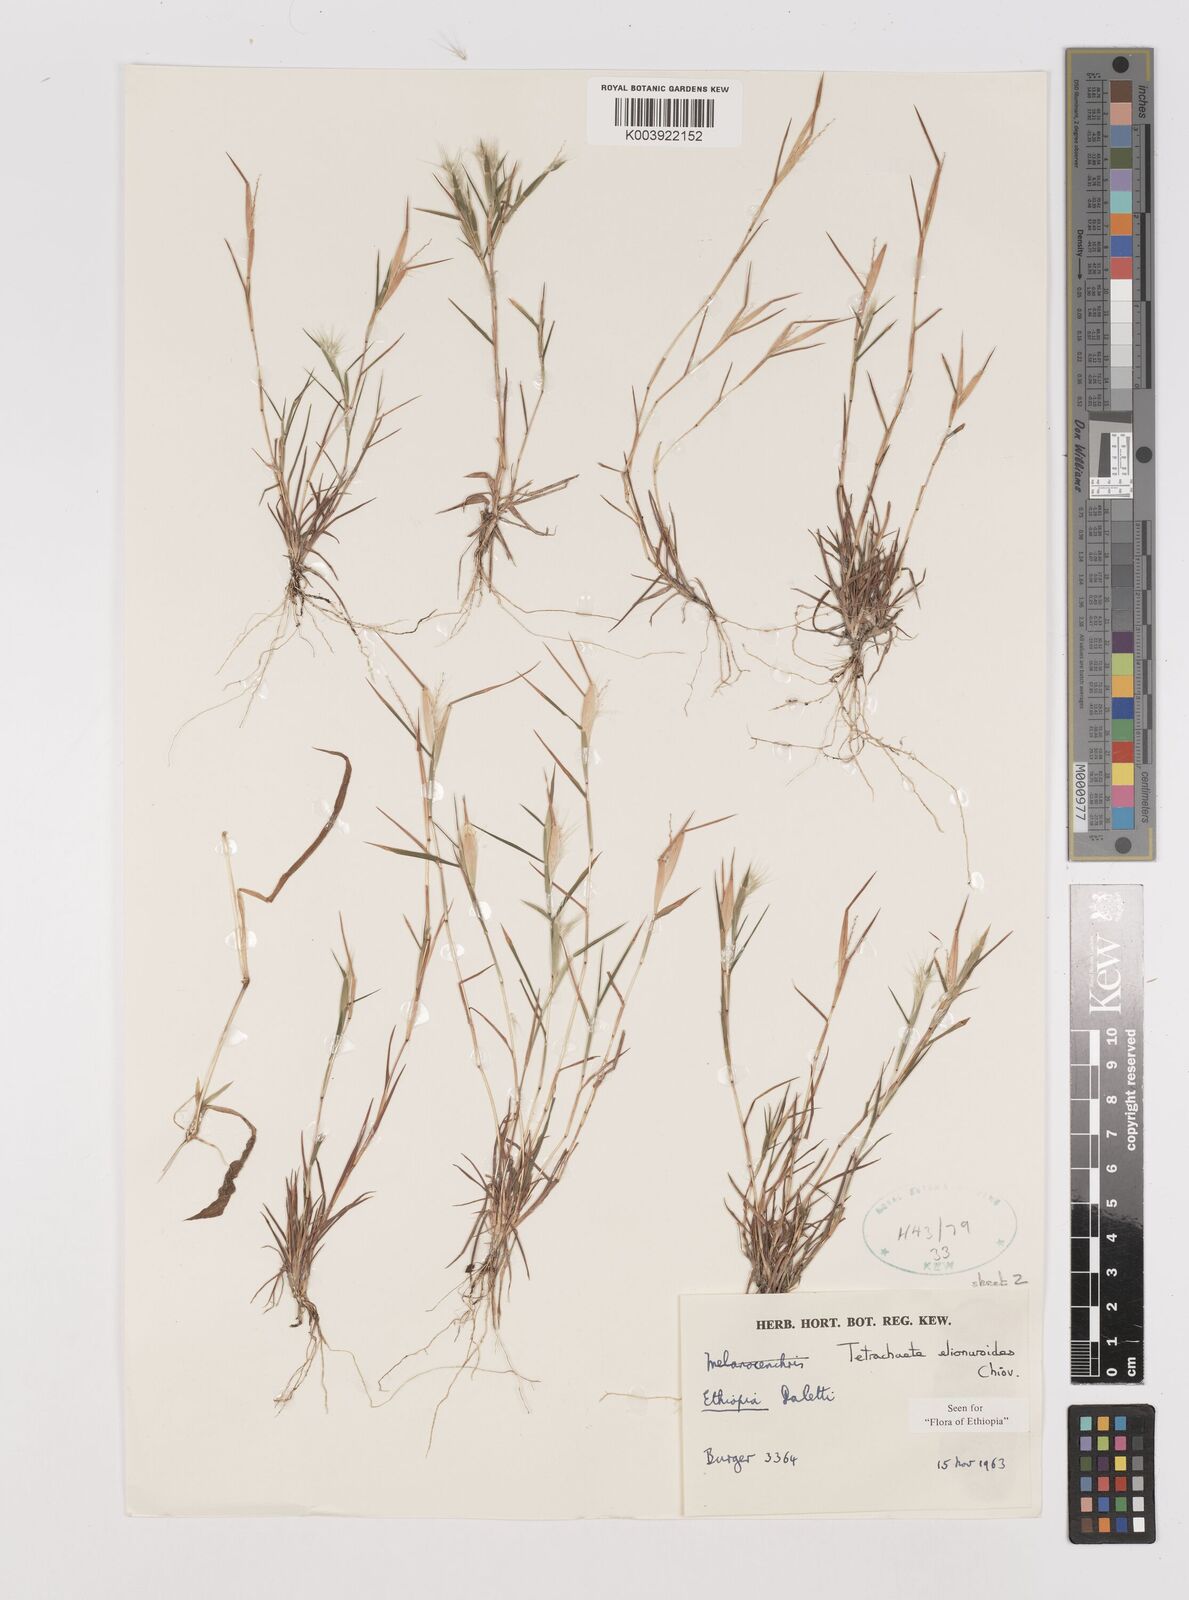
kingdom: Plantae
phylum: Tracheophyta
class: Liliopsida
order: Poales
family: Poaceae
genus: Tetrachaete
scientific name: Tetrachaete elionuroides
